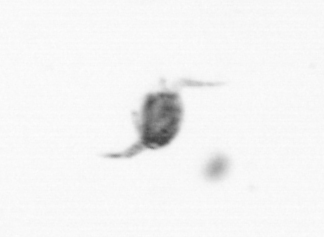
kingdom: Animalia
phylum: Arthropoda
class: Copepoda
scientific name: Copepoda
